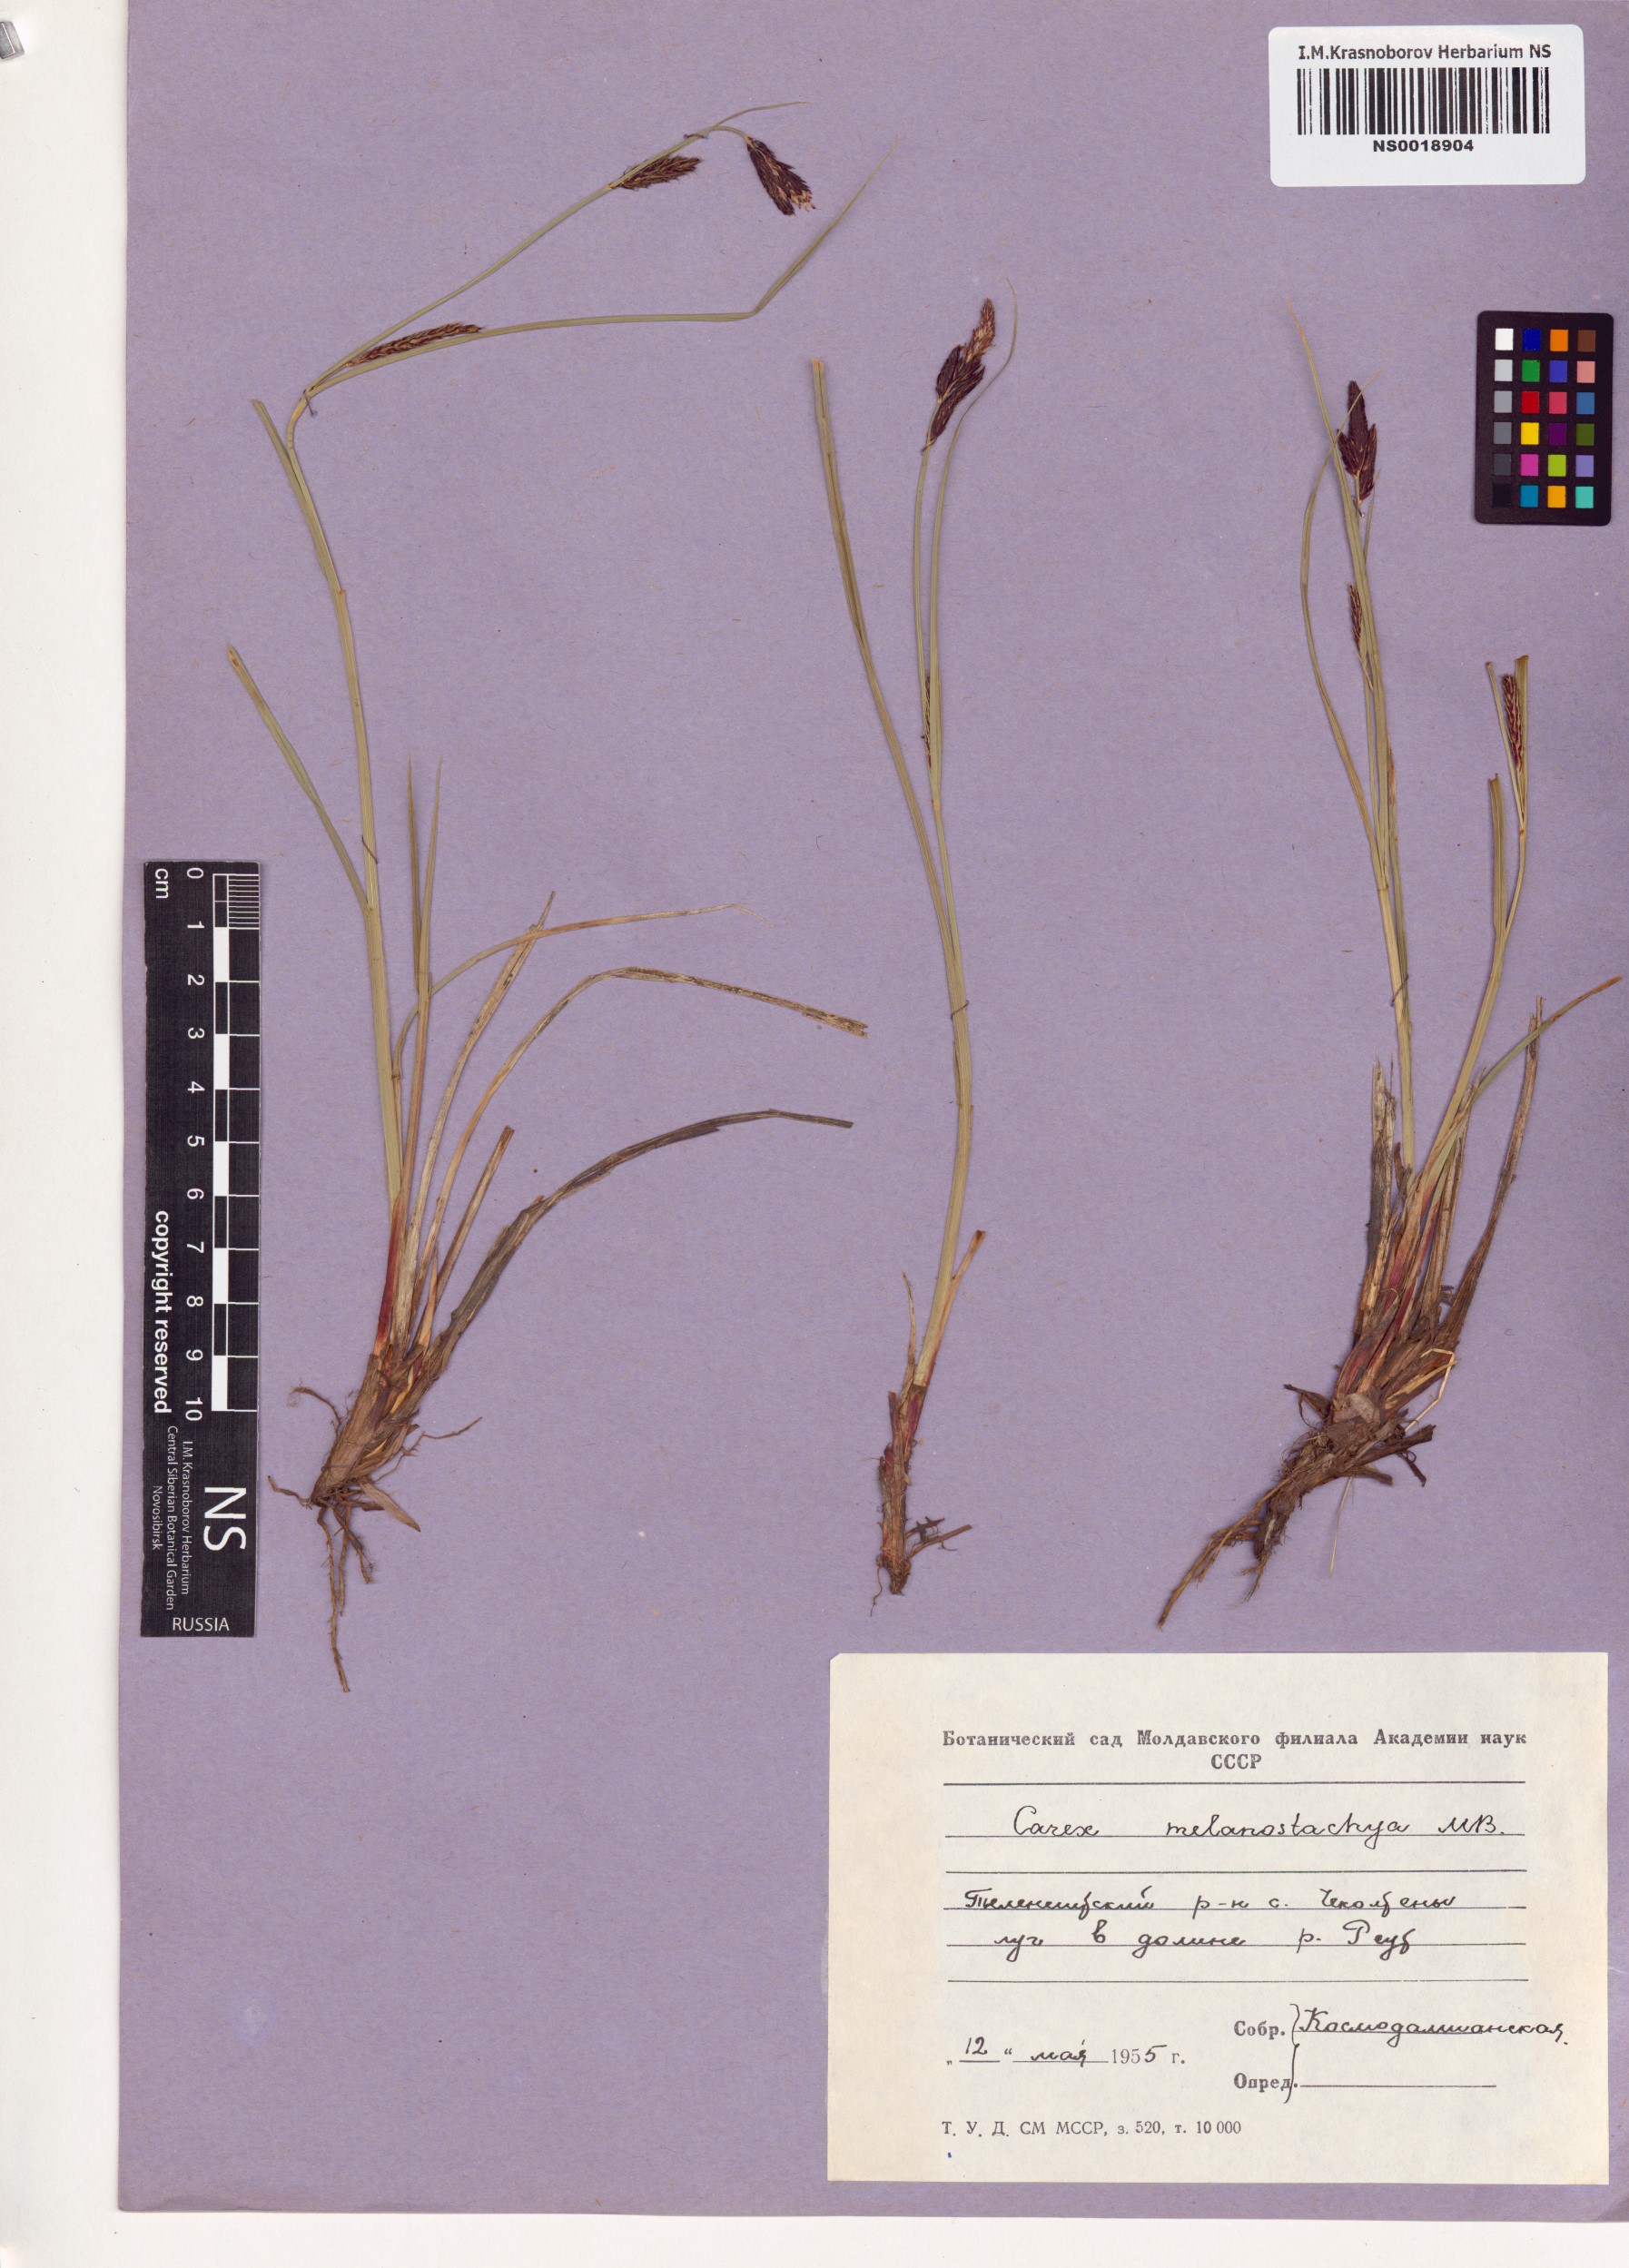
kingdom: Plantae
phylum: Tracheophyta
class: Liliopsida
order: Poales
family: Cyperaceae
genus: Carex
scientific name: Carex melanostachya
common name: Black-spiked sedge
